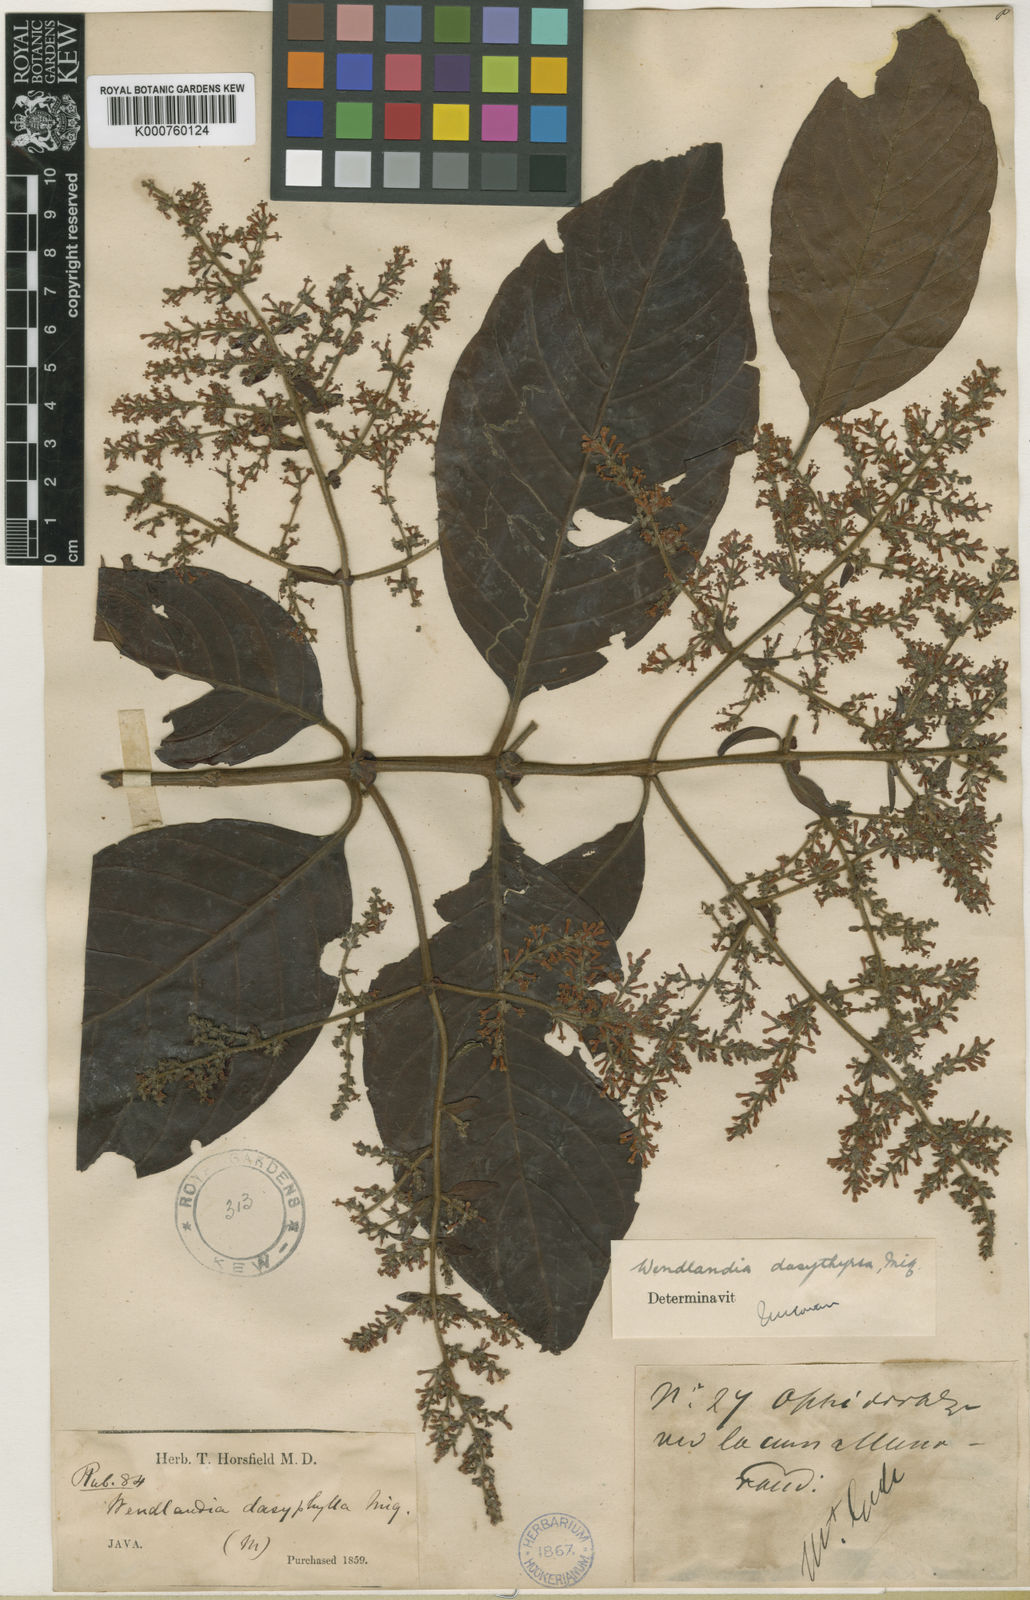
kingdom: Plantae
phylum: Tracheophyta
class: Magnoliopsida
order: Gentianales
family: Rubiaceae
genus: Wendlandia
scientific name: Wendlandia densiflora
